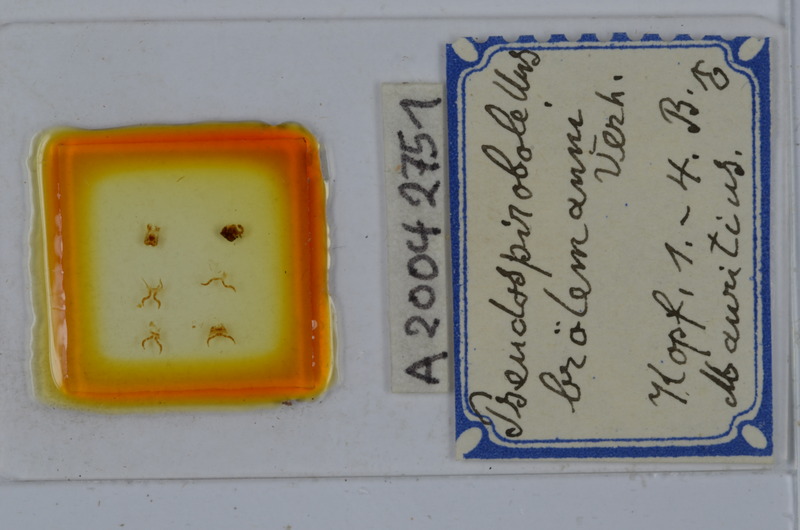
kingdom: Animalia
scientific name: Animalia
